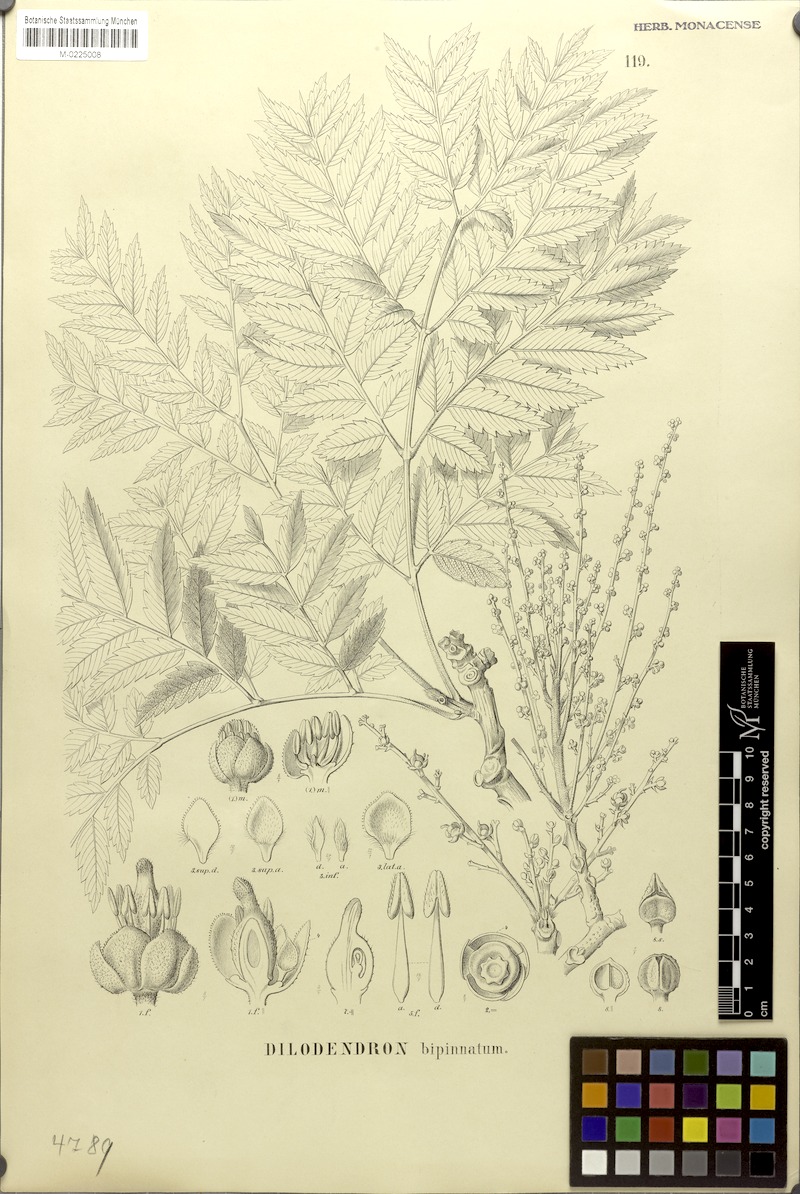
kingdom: Plantae
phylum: Tracheophyta
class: Magnoliopsida
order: Sapindales
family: Sapindaceae
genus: Dilodendron
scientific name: Dilodendron bipinnatum
